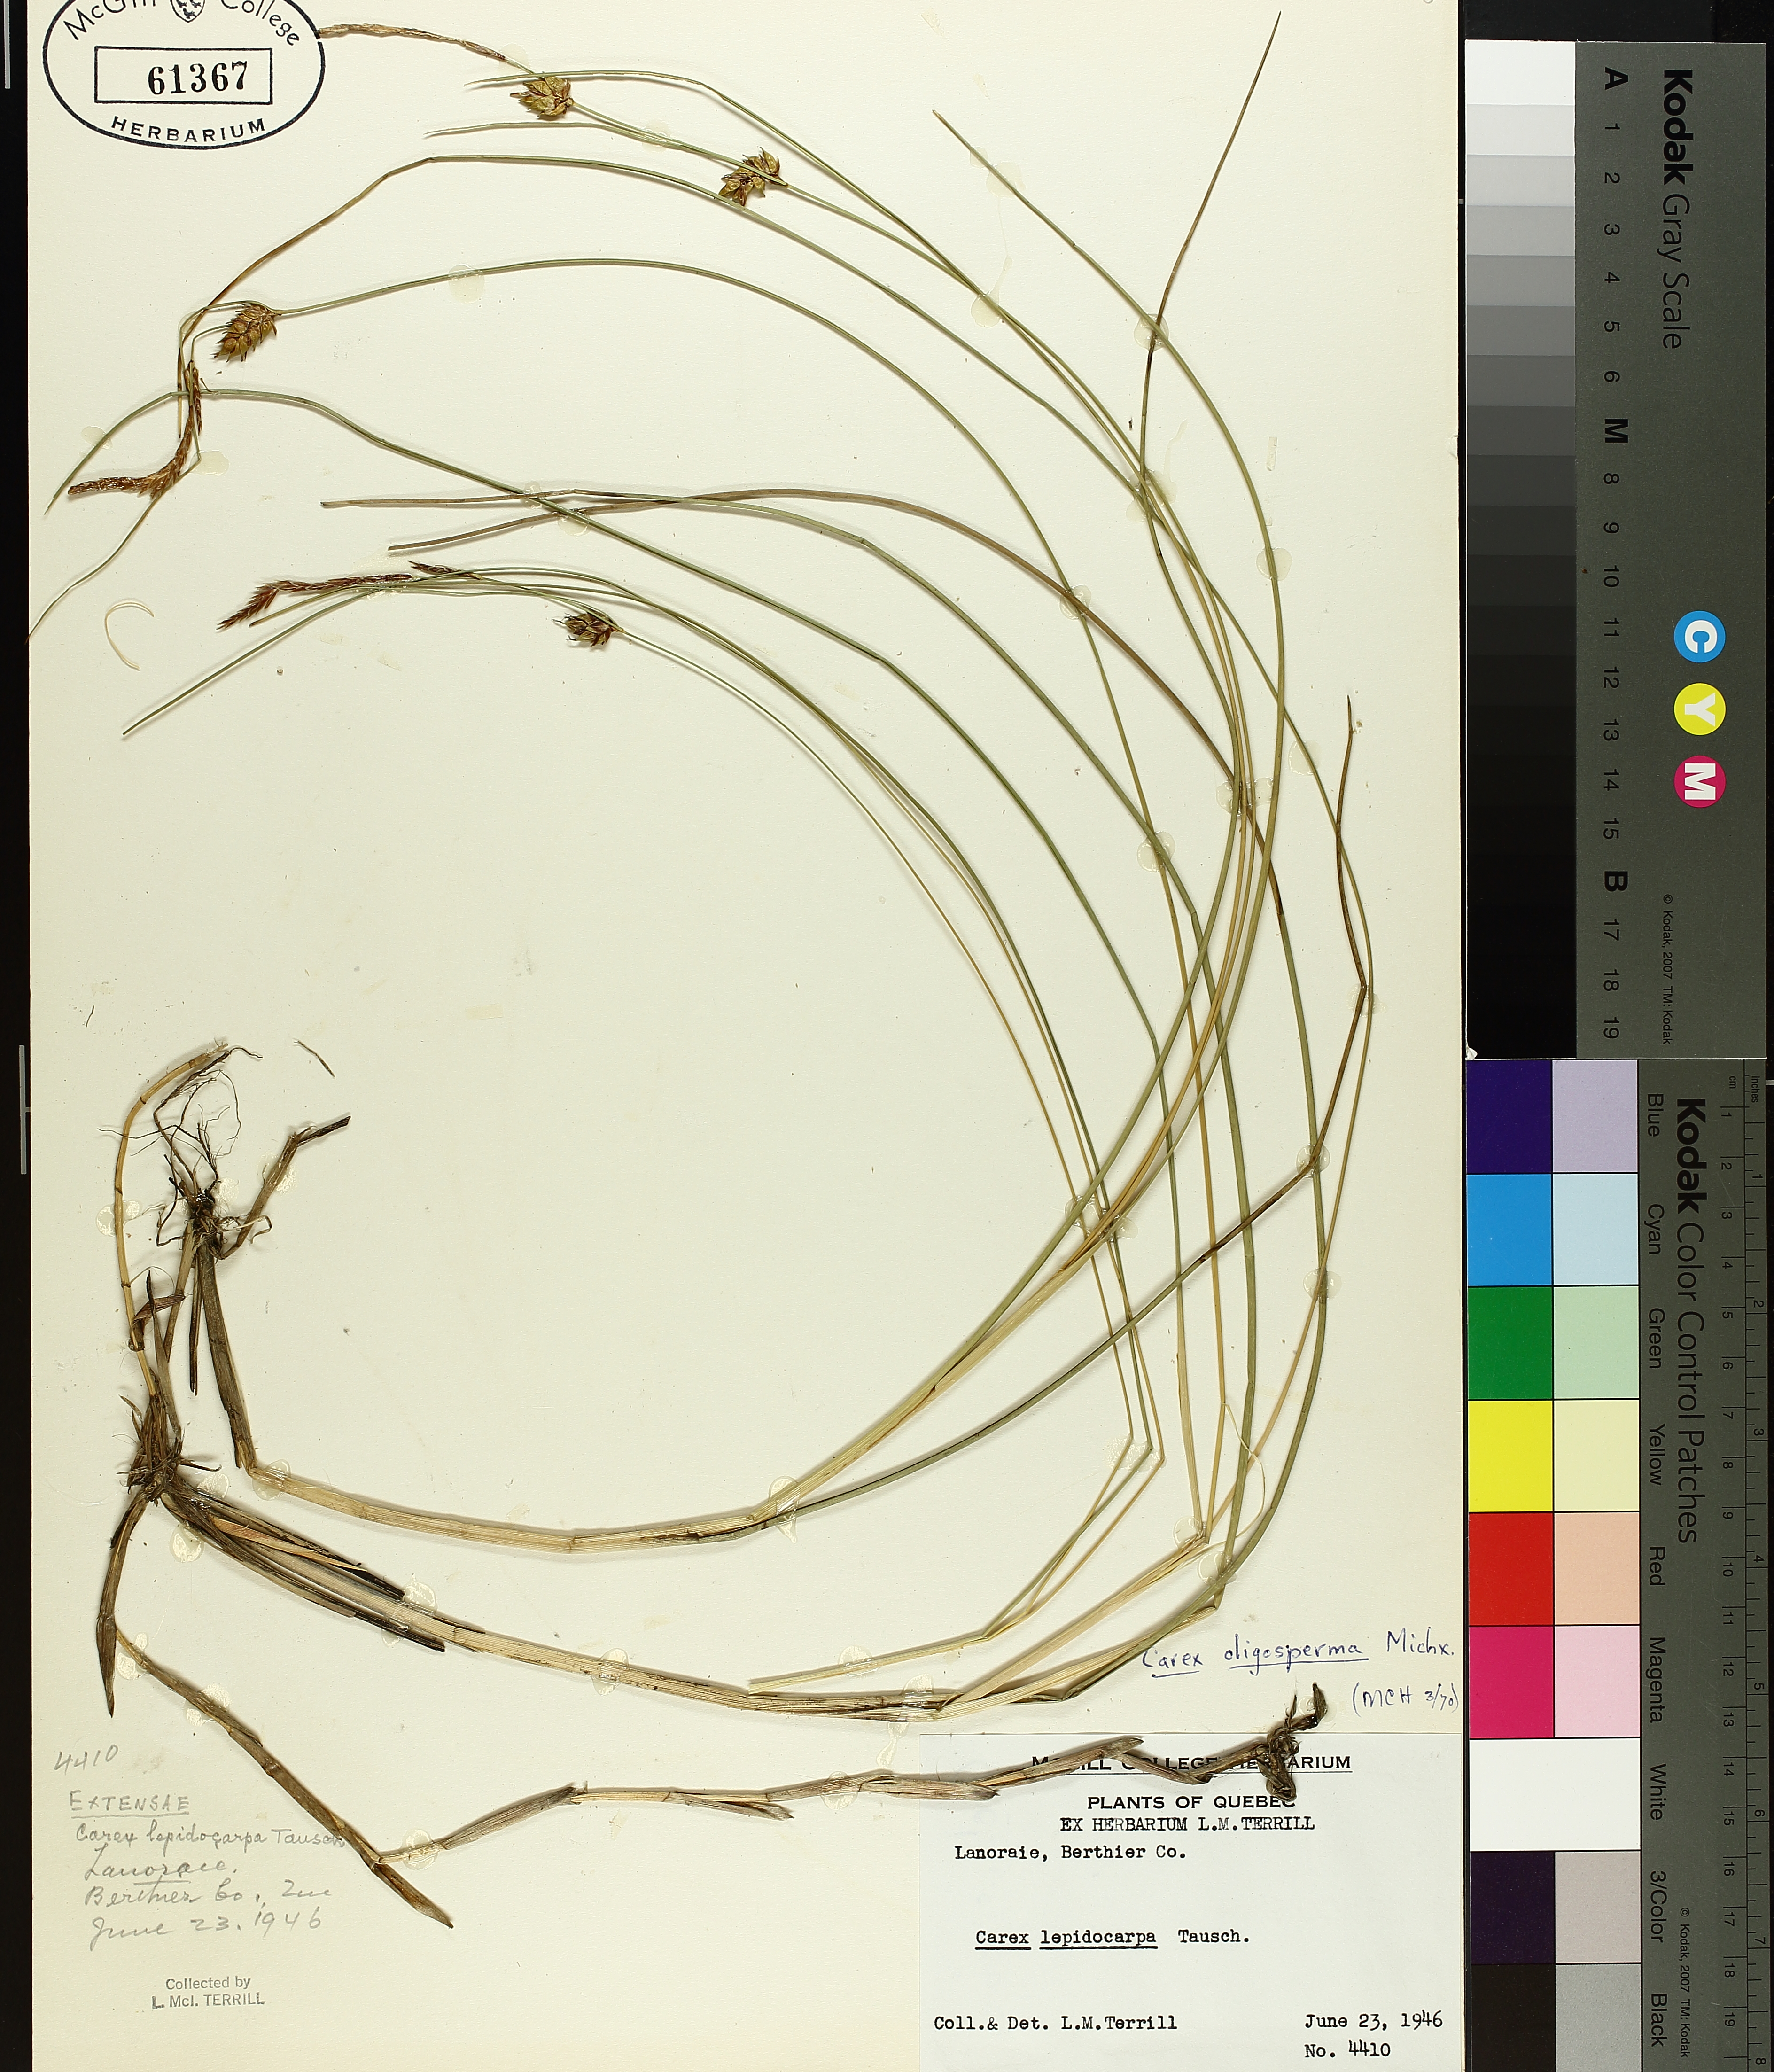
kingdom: Plantae
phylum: Tracheophyta
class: Liliopsida
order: Poales
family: Cyperaceae
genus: Carex
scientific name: Carex oligosperma
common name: Few-seed sedge
